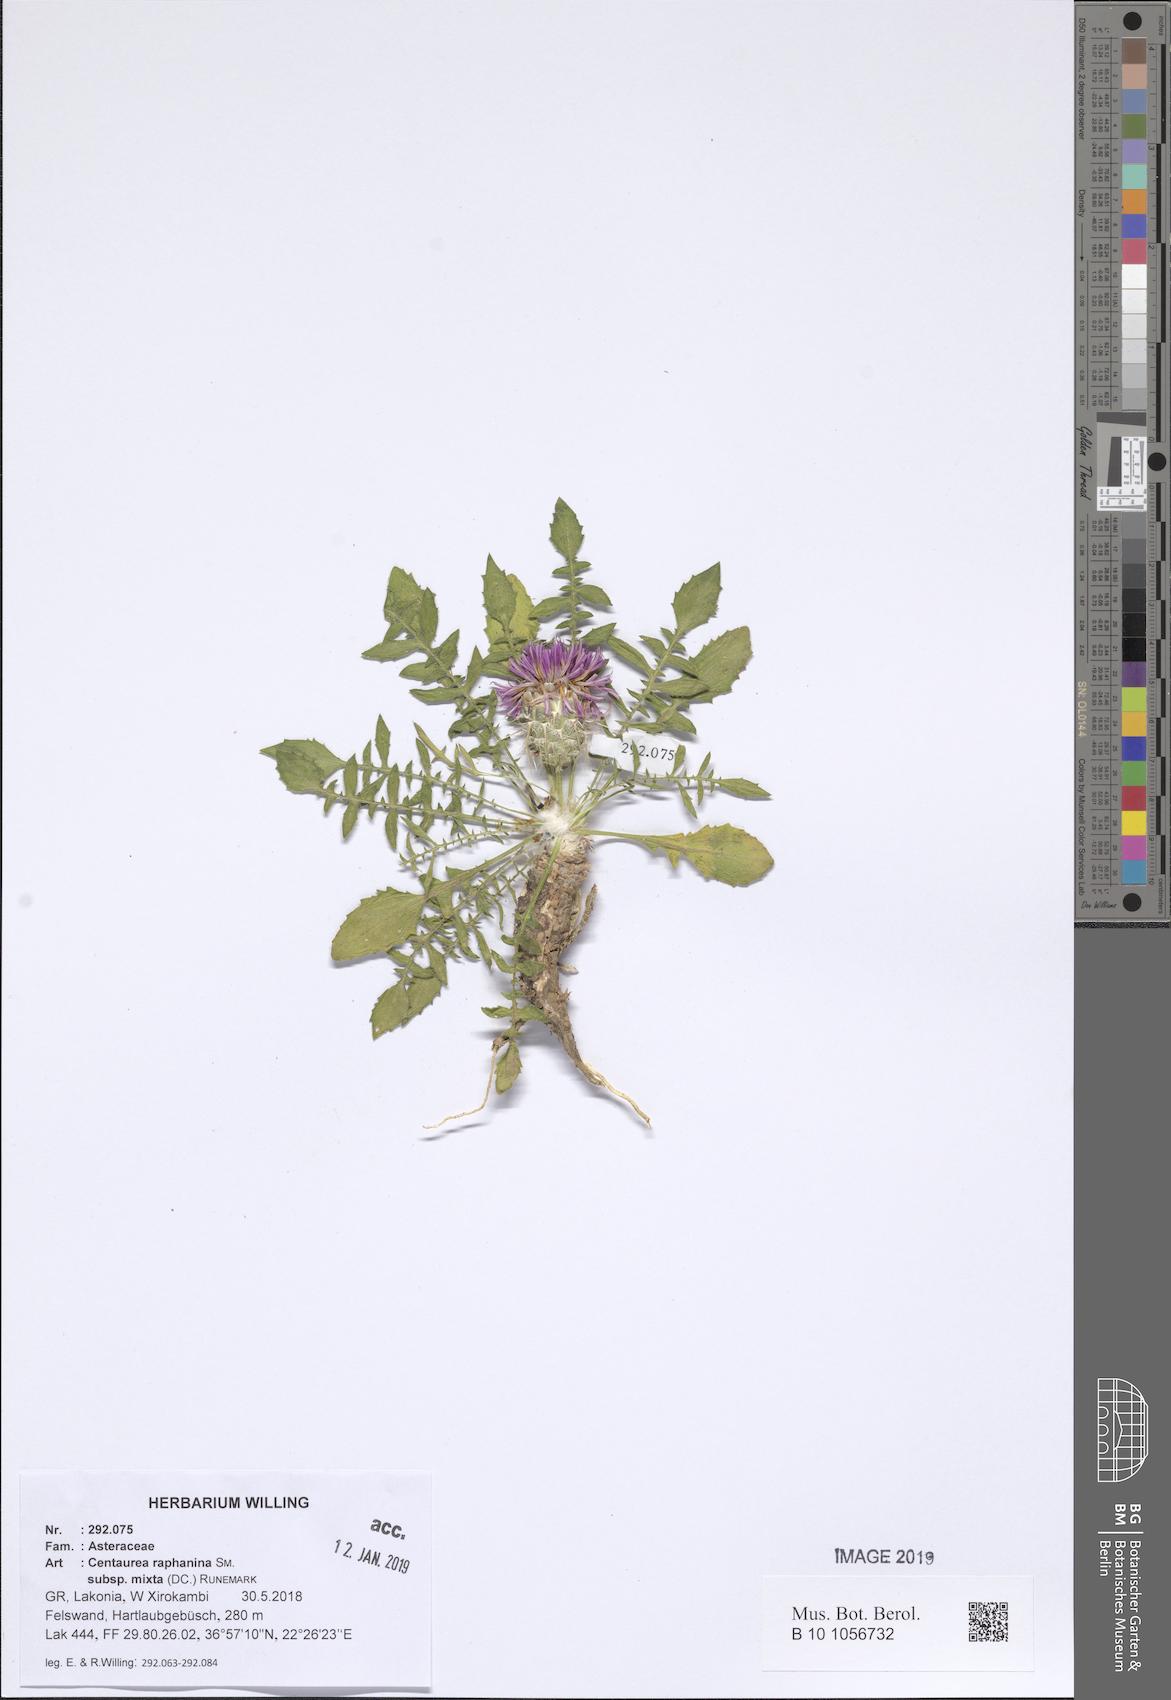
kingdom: Plantae
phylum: Tracheophyta
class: Magnoliopsida
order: Asterales
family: Asteraceae
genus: Centaurea
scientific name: Centaurea raphanina
